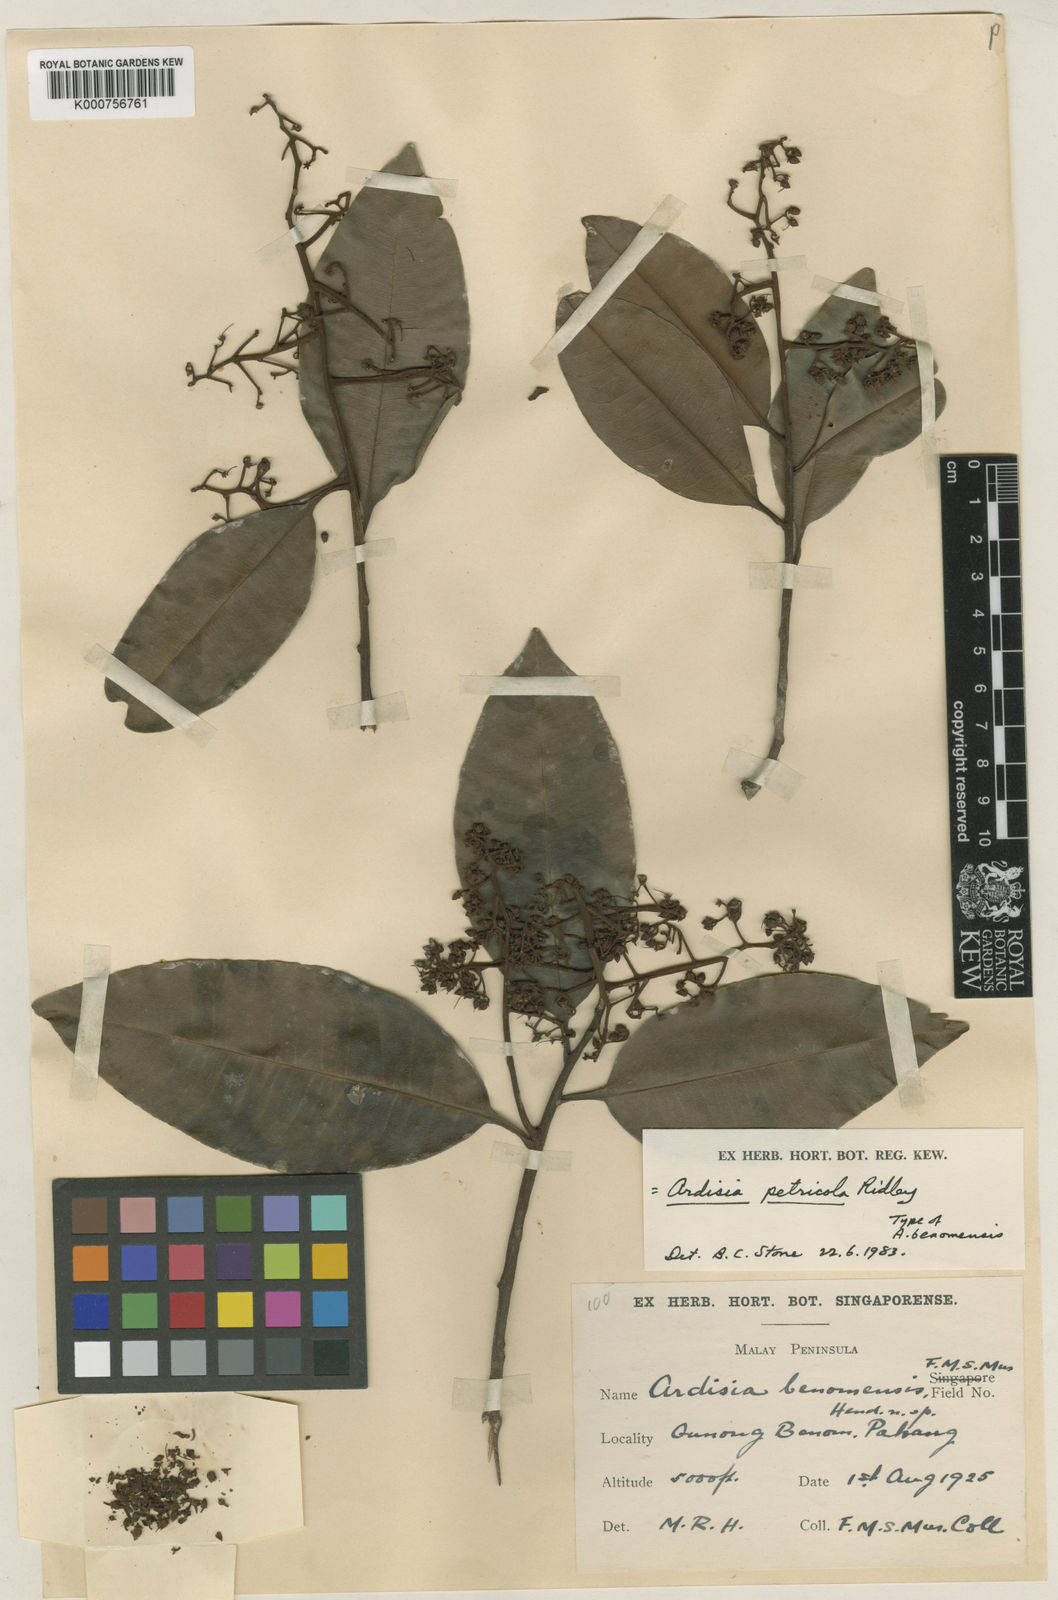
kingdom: Plantae
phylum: Tracheophyta
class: Magnoliopsida
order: Ericales
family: Primulaceae
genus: Ardisia
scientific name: Ardisia benomensis
